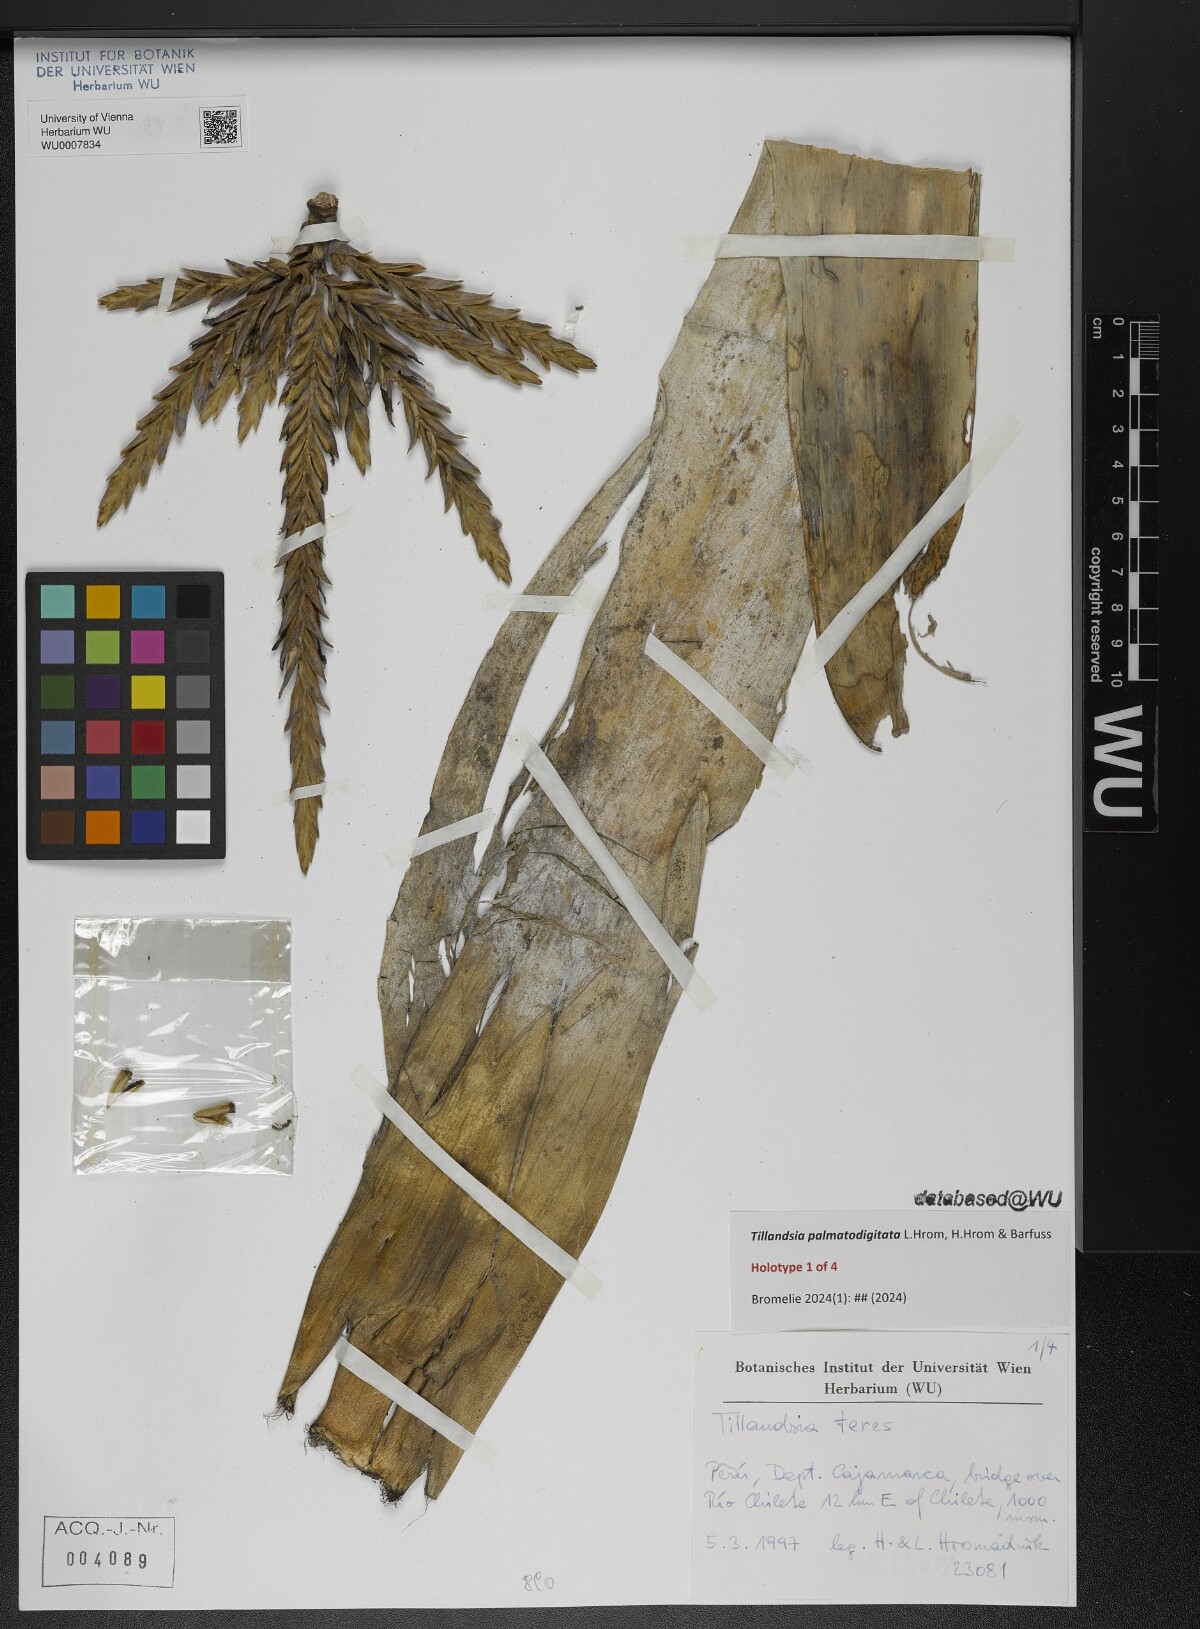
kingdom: Plantae
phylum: Tracheophyta
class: Liliopsida
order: Poales
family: Bromeliaceae
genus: Tillandsia
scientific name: Tillandsia
